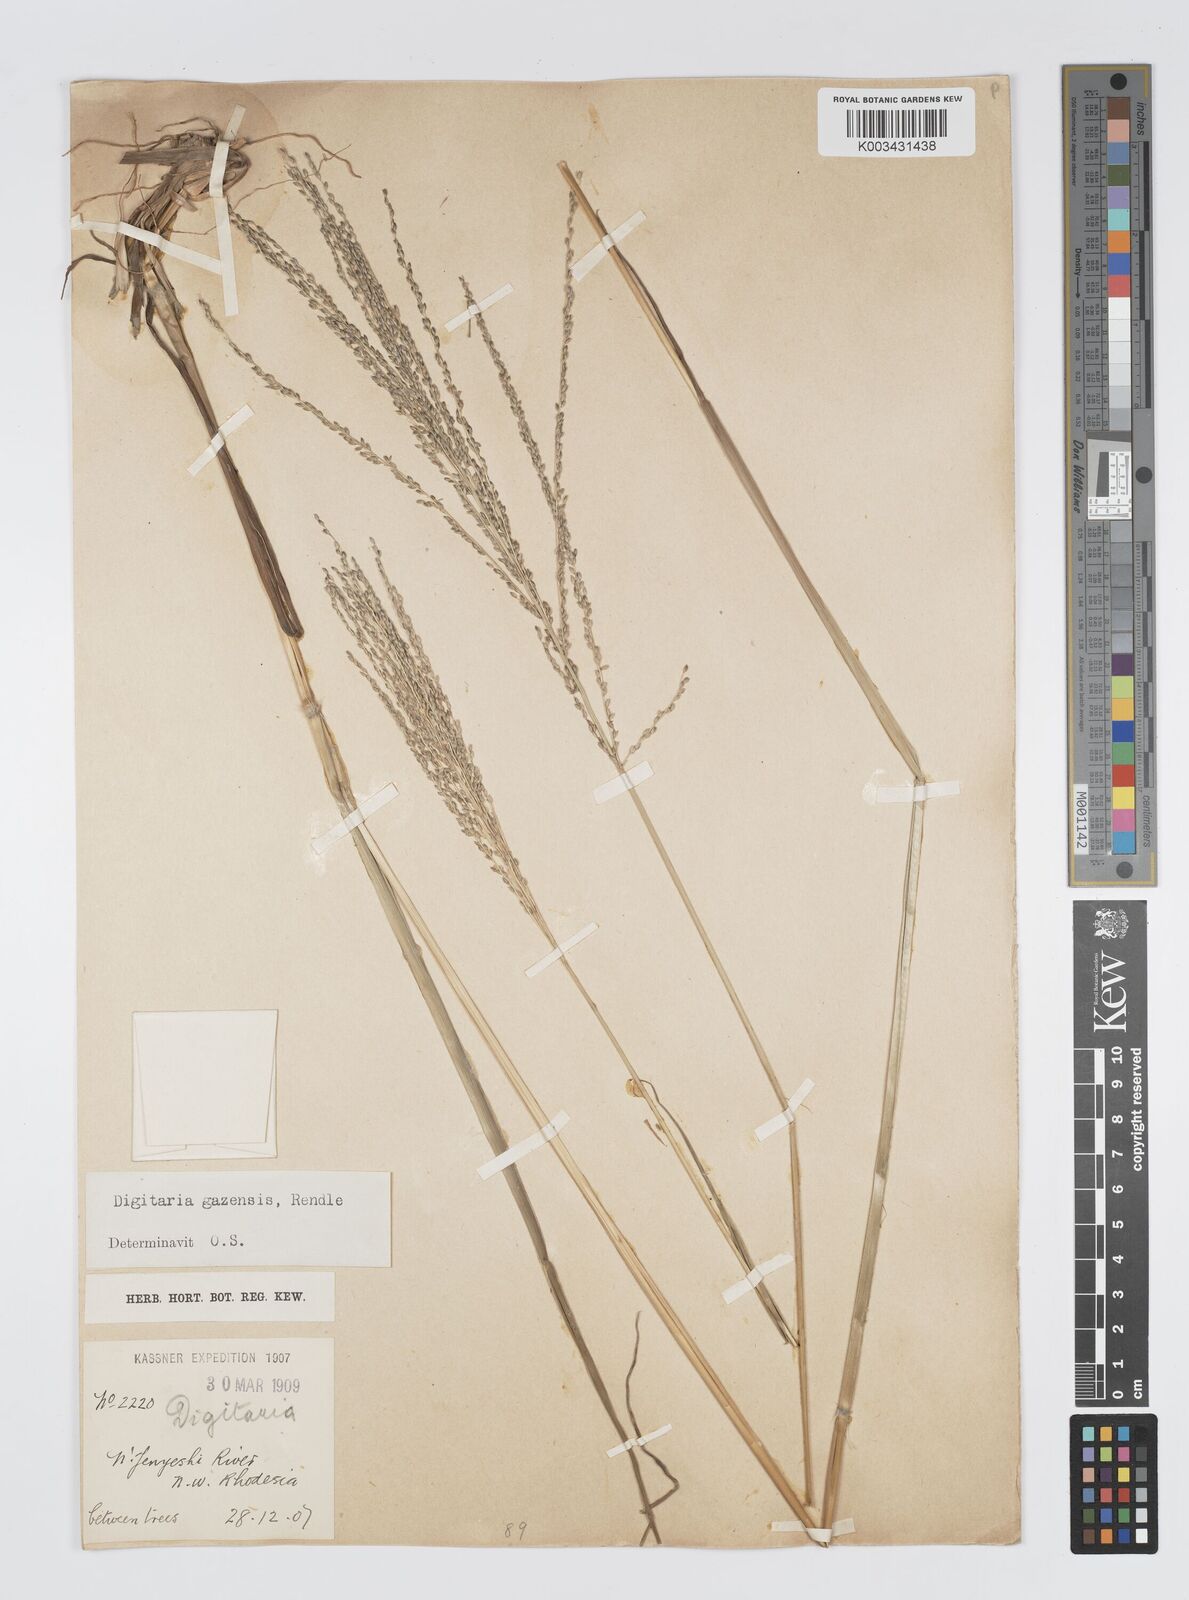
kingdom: Plantae
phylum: Tracheophyta
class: Liliopsida
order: Poales
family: Poaceae
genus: Digitaria
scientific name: Digitaria gazensis
